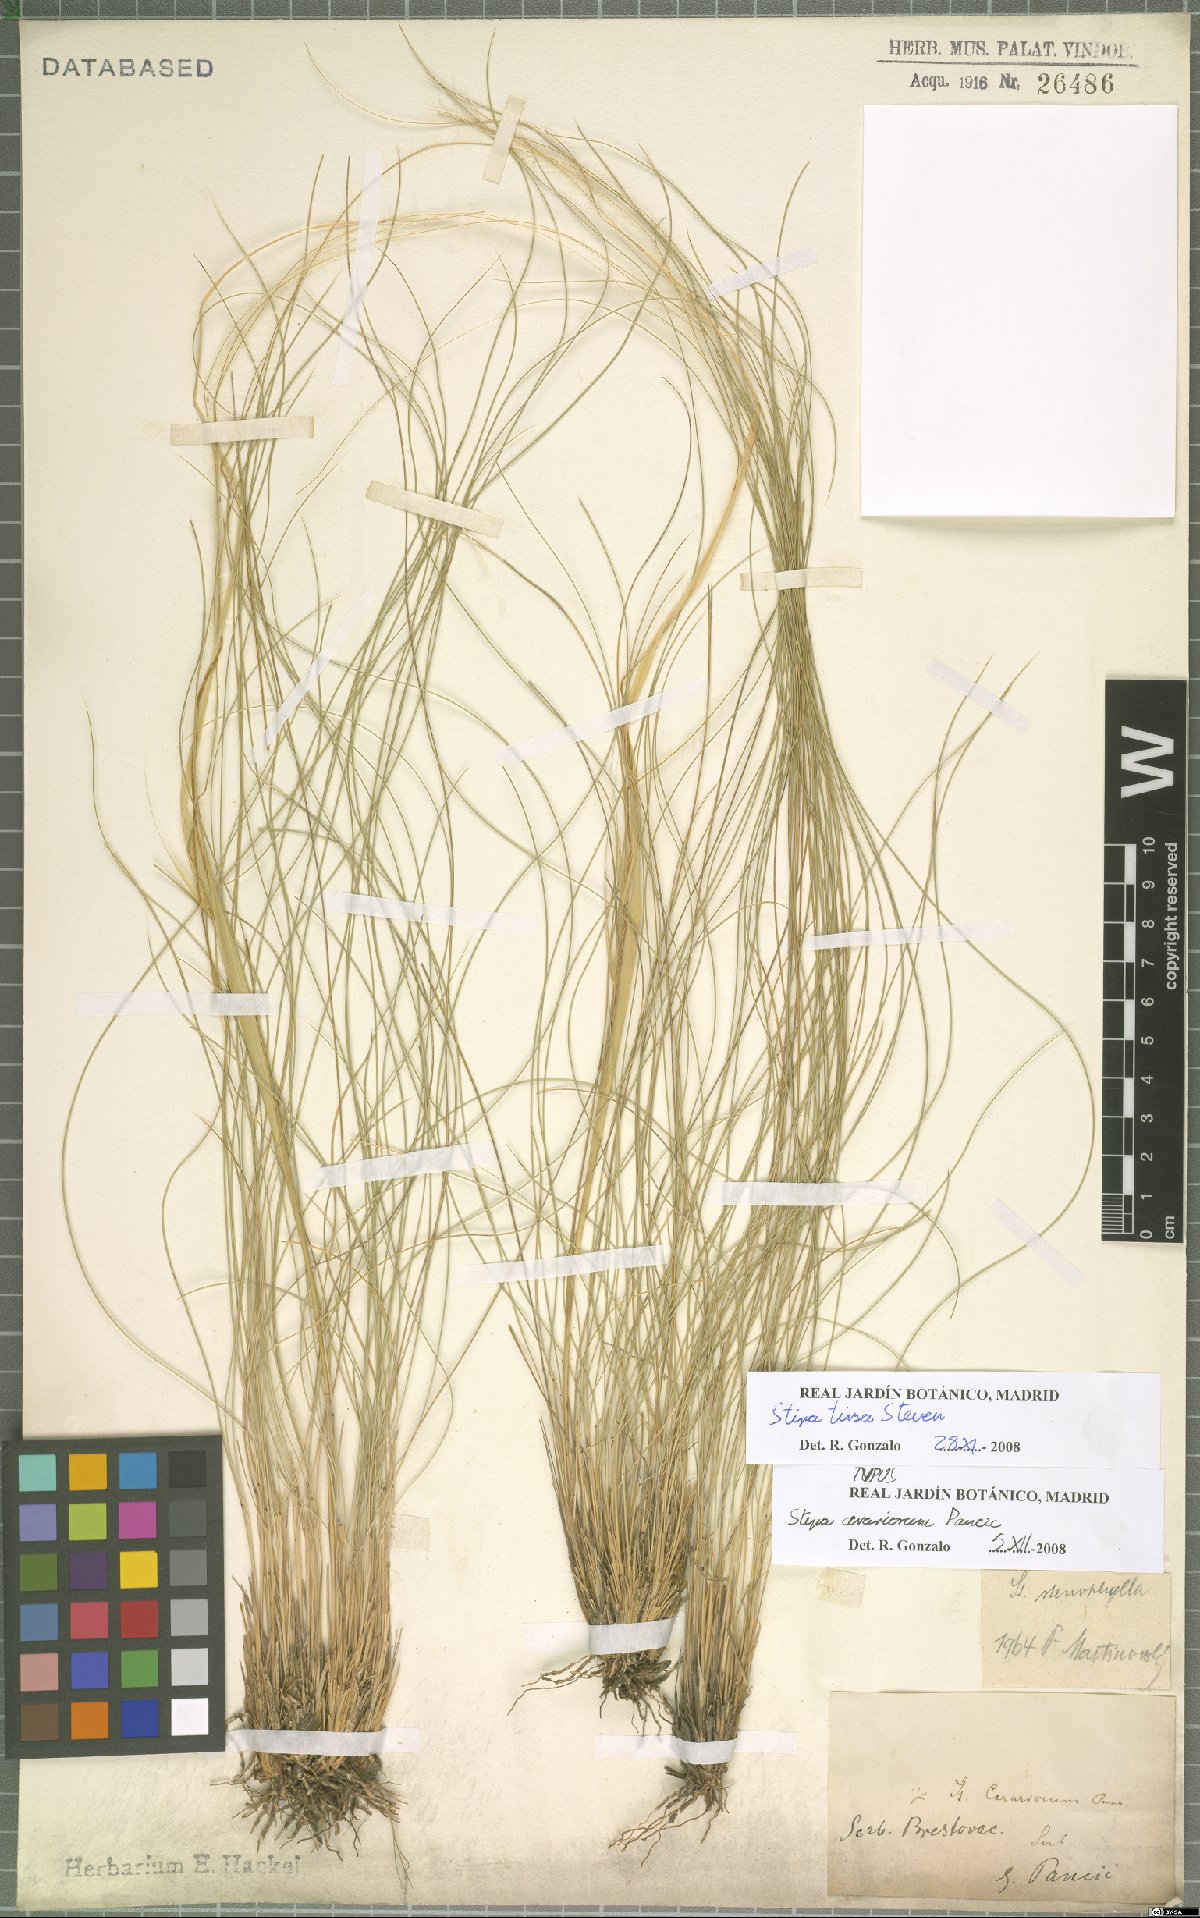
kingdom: Plantae
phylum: Tracheophyta
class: Liliopsida
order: Poales
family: Poaceae
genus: Stipa
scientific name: Stipa tirsa
